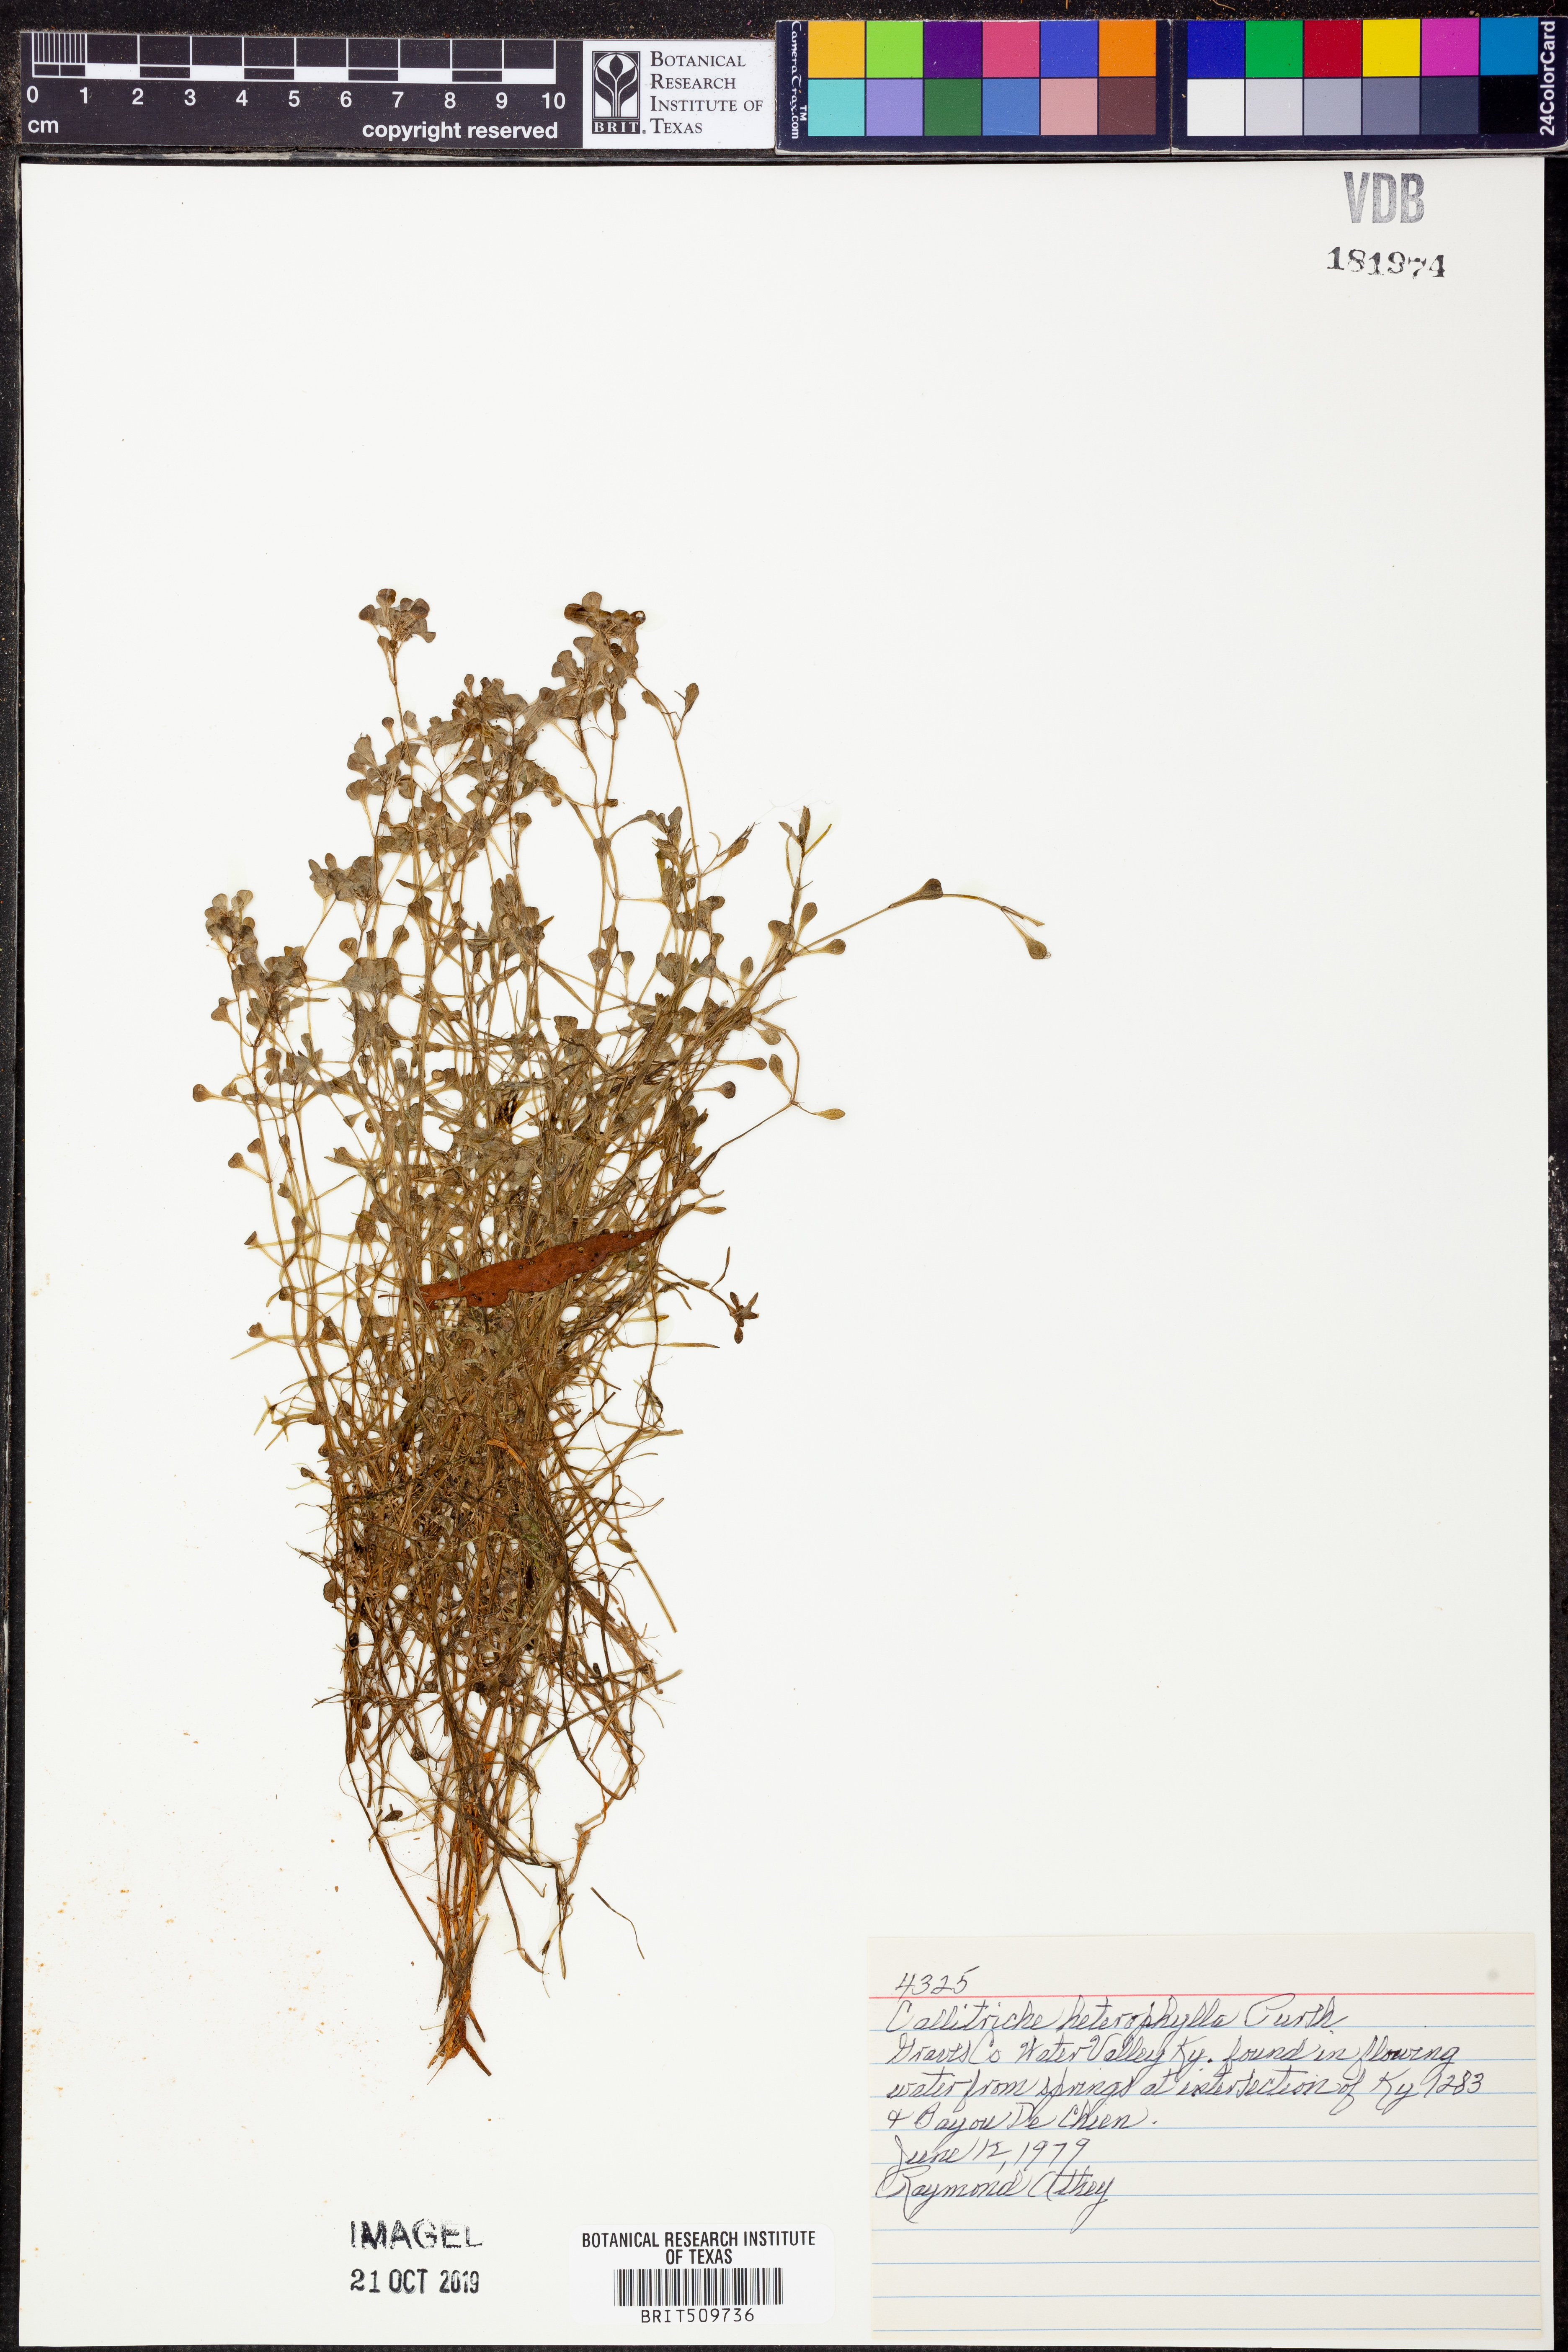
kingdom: Plantae
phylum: Tracheophyta
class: Magnoliopsida
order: Lamiales
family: Plantaginaceae
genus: Callitriche
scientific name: Callitriche heterophylla
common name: Two-headed water-starwort
